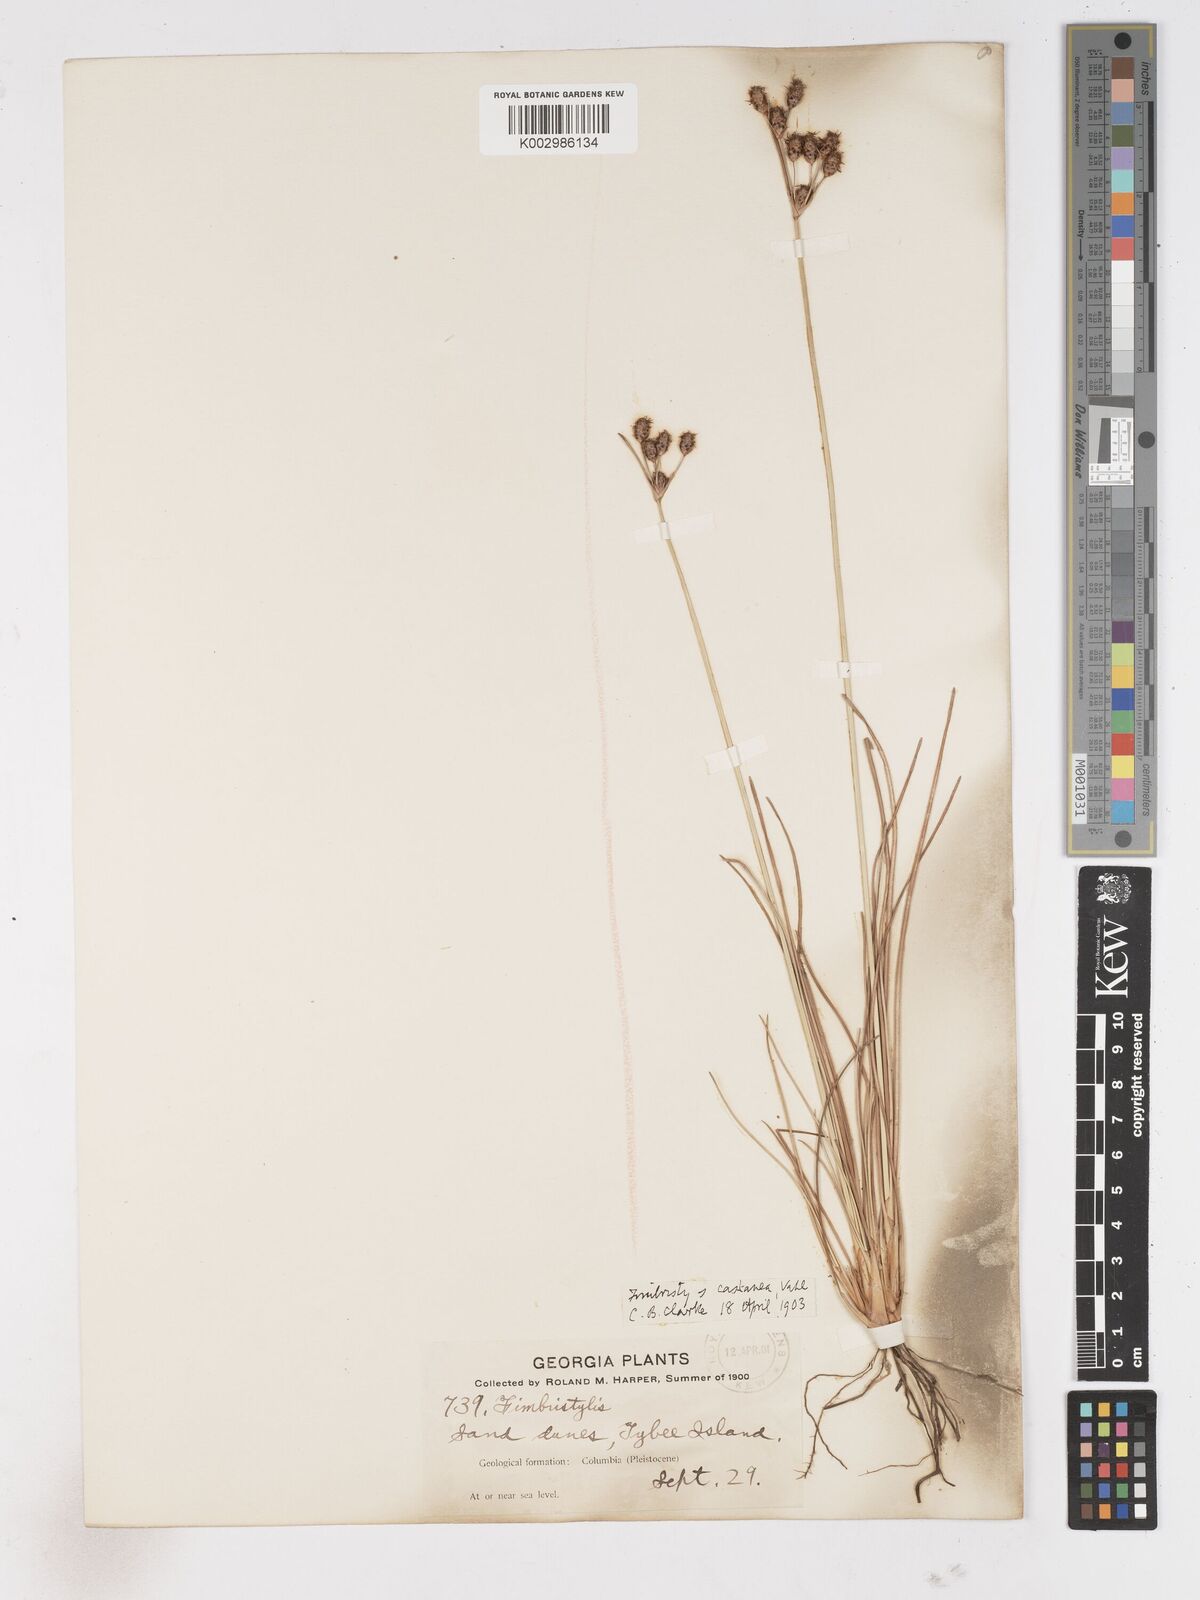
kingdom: Plantae
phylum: Tracheophyta
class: Liliopsida
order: Poales
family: Cyperaceae
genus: Fimbristylis
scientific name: Fimbristylis puberula
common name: Hairy fimbristylis
